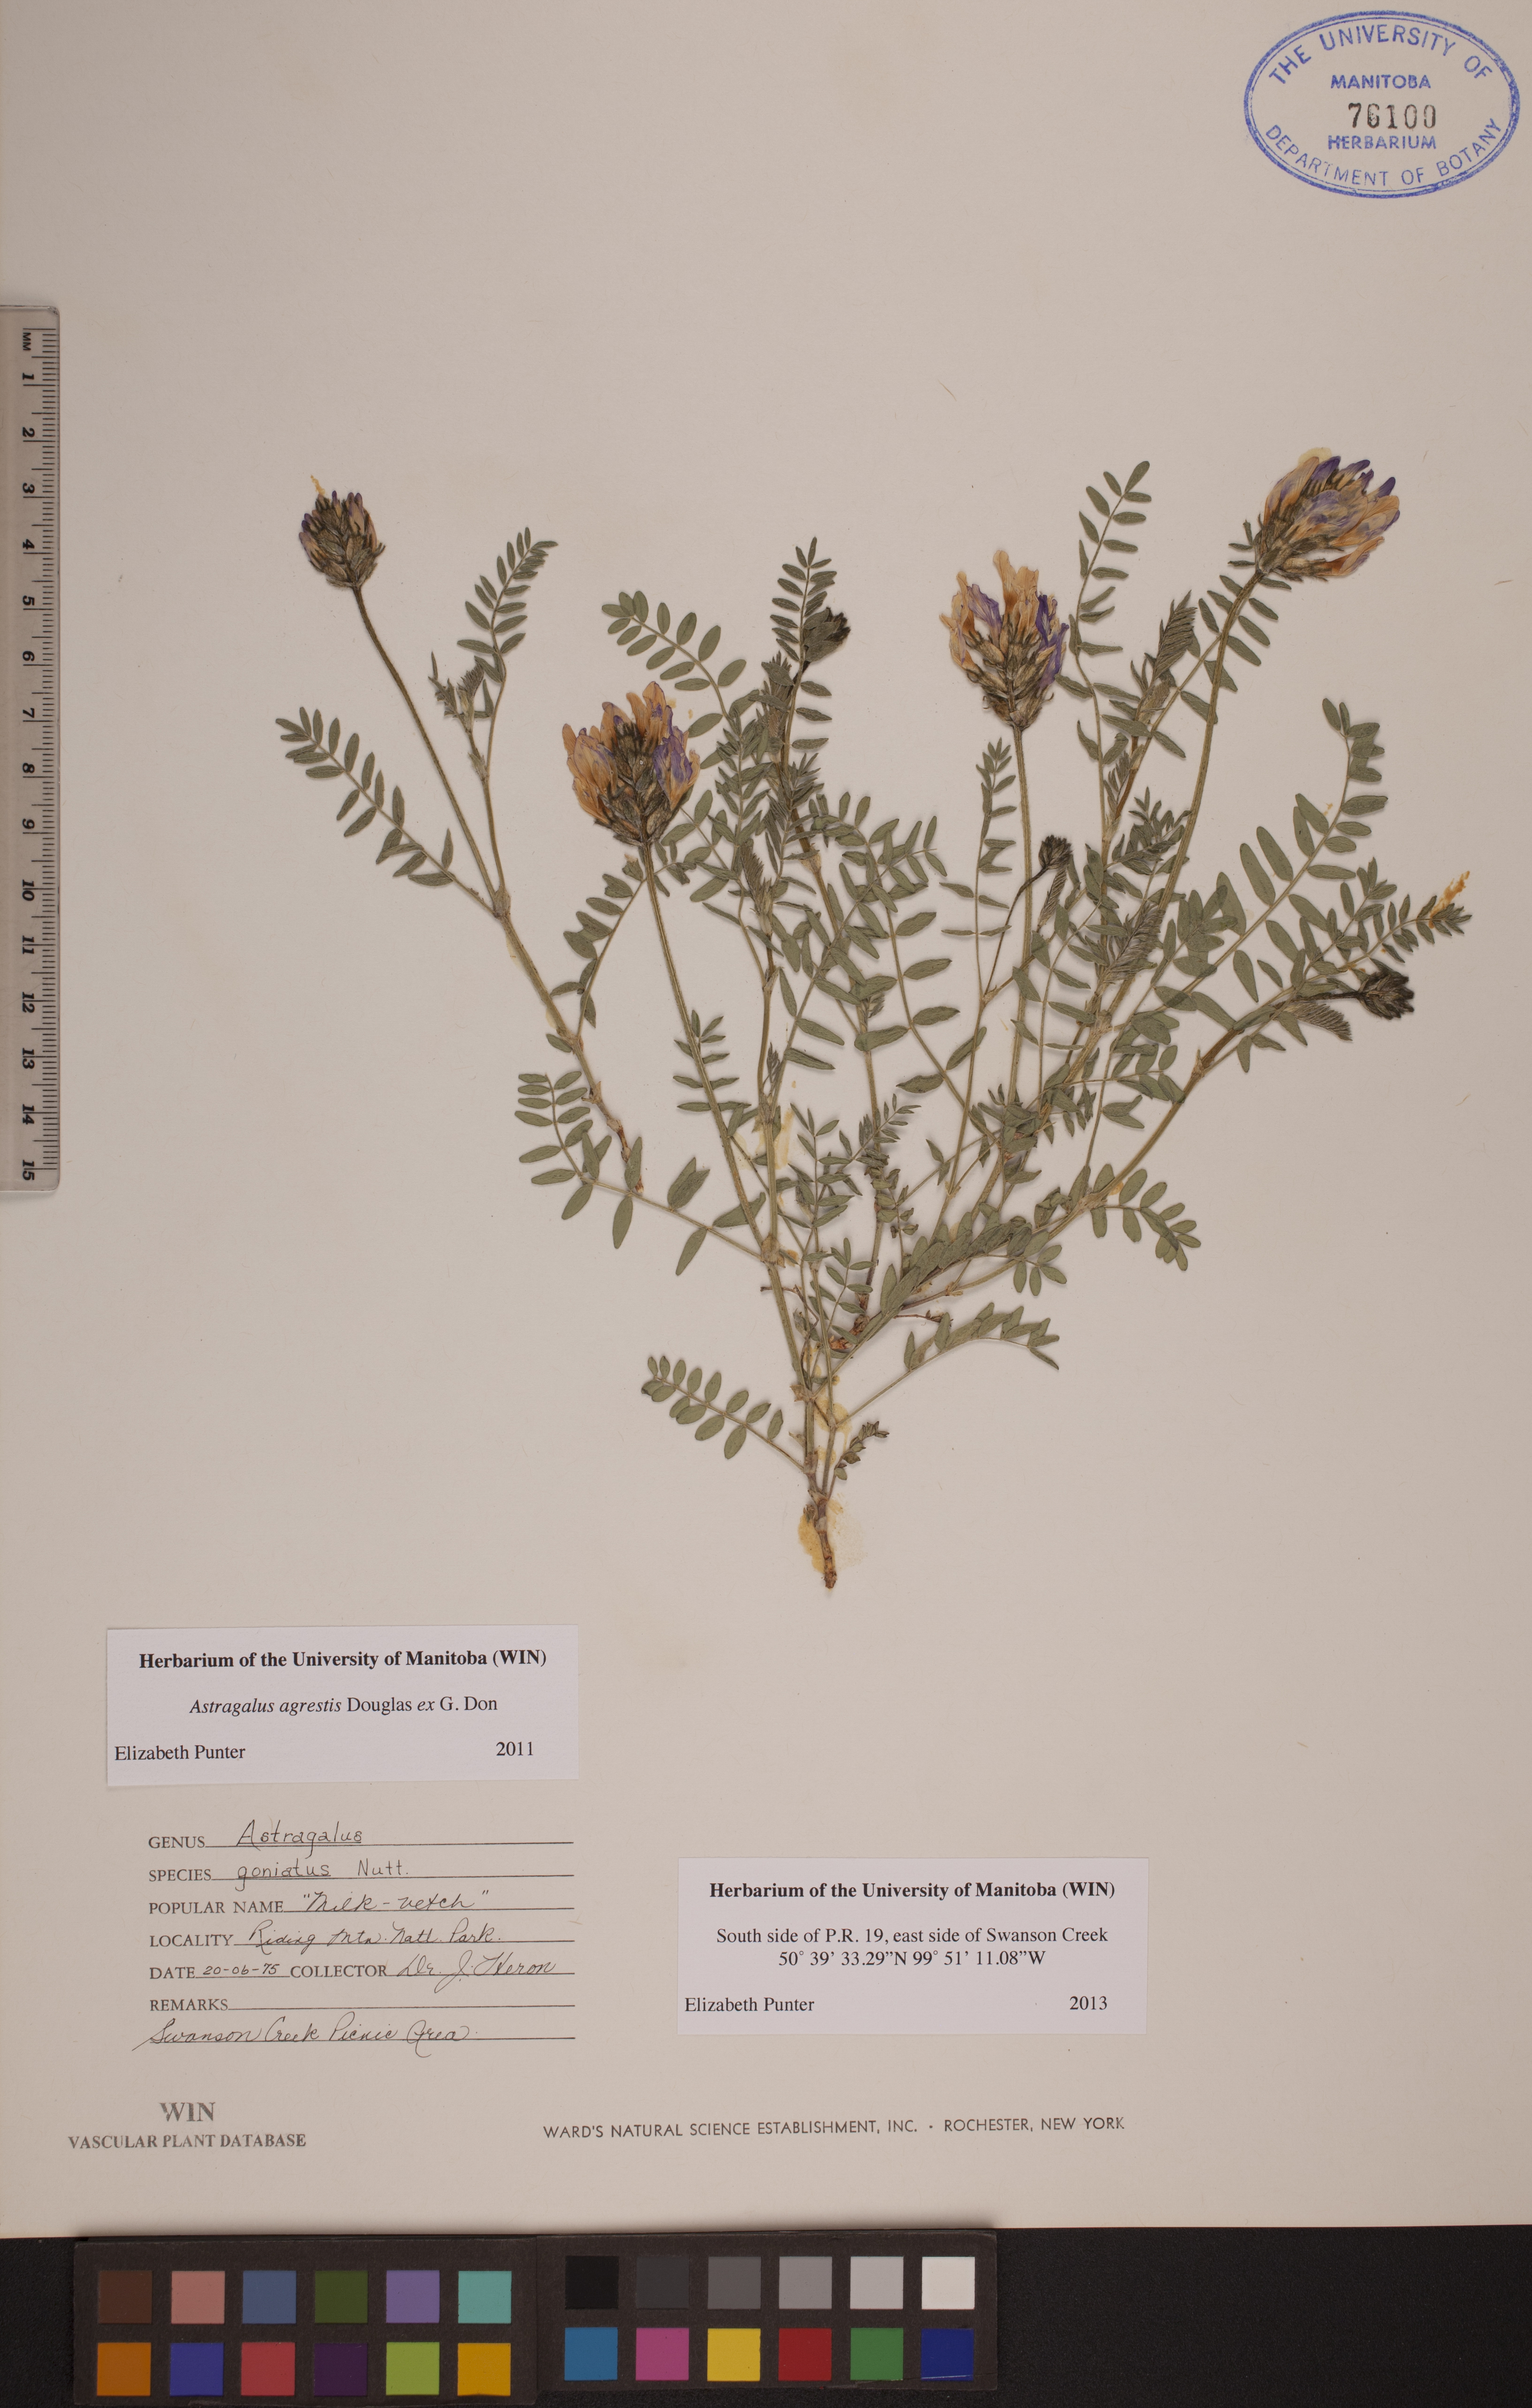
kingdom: Plantae
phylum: Tracheophyta
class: Magnoliopsida
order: Fabales
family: Fabaceae
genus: Astragalus
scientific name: Astragalus agrestis
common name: Field milk-vetch
